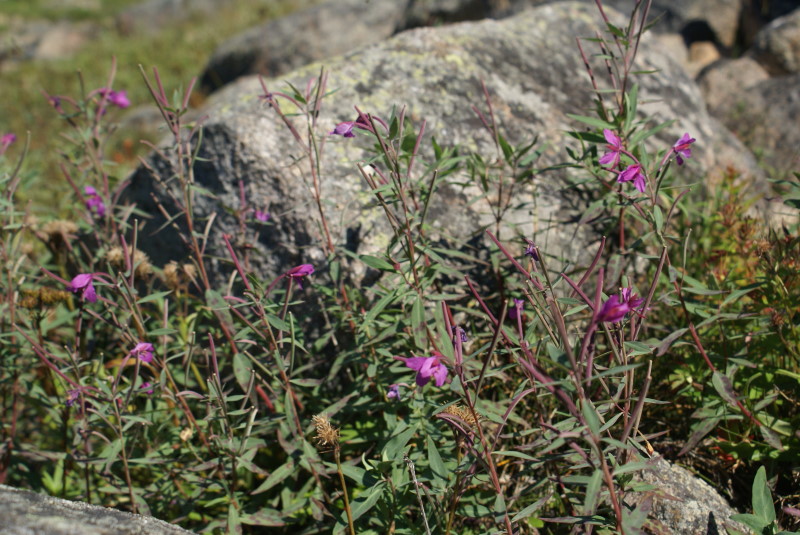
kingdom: Plantae
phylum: Tracheophyta
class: Magnoliopsida
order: Myrtales
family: Onagraceae
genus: Chamaenerion
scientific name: Chamaenerion angustifolium
